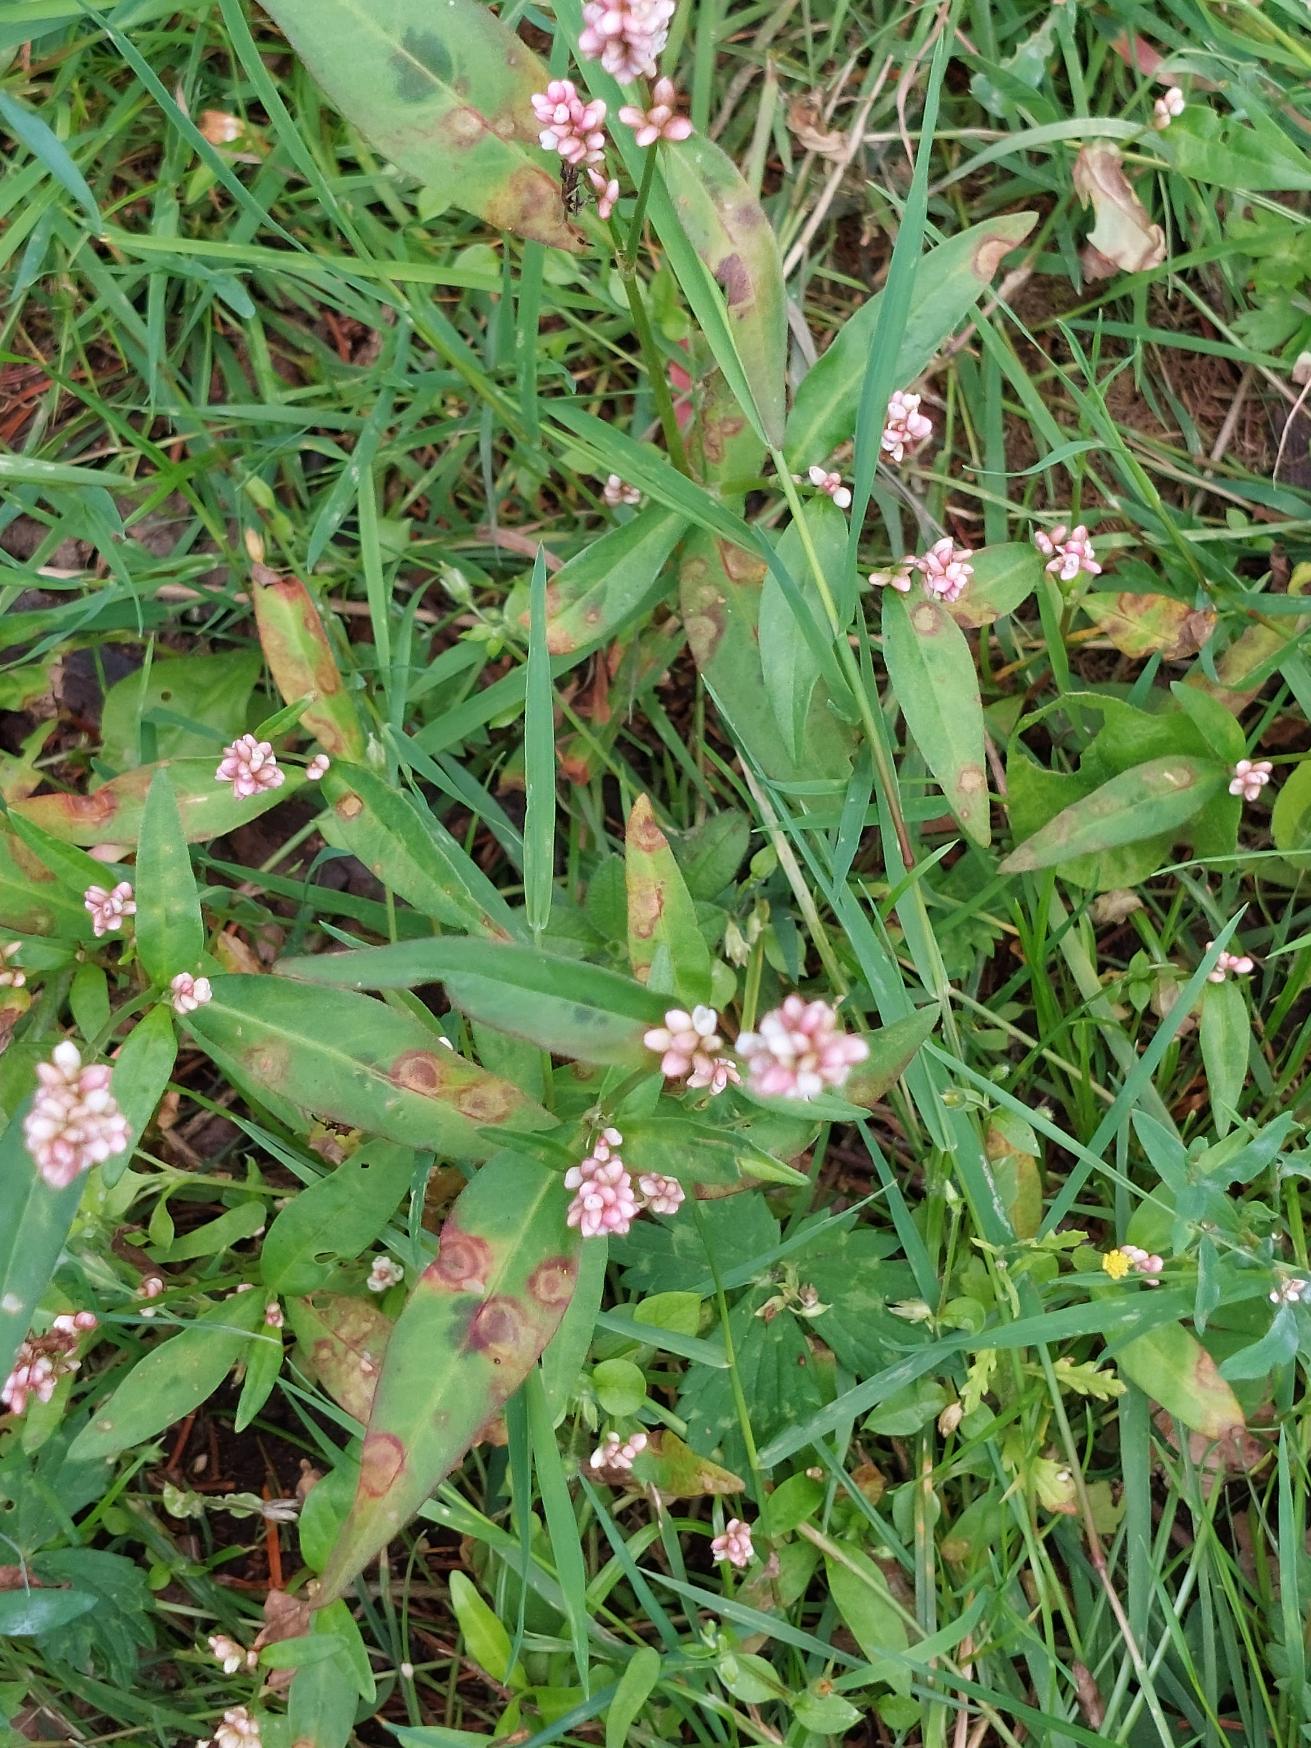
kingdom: Plantae
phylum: Tracheophyta
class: Magnoliopsida
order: Caryophyllales
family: Polygonaceae
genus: Persicaria
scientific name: Persicaria maculosa
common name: Fersken-pileurt
